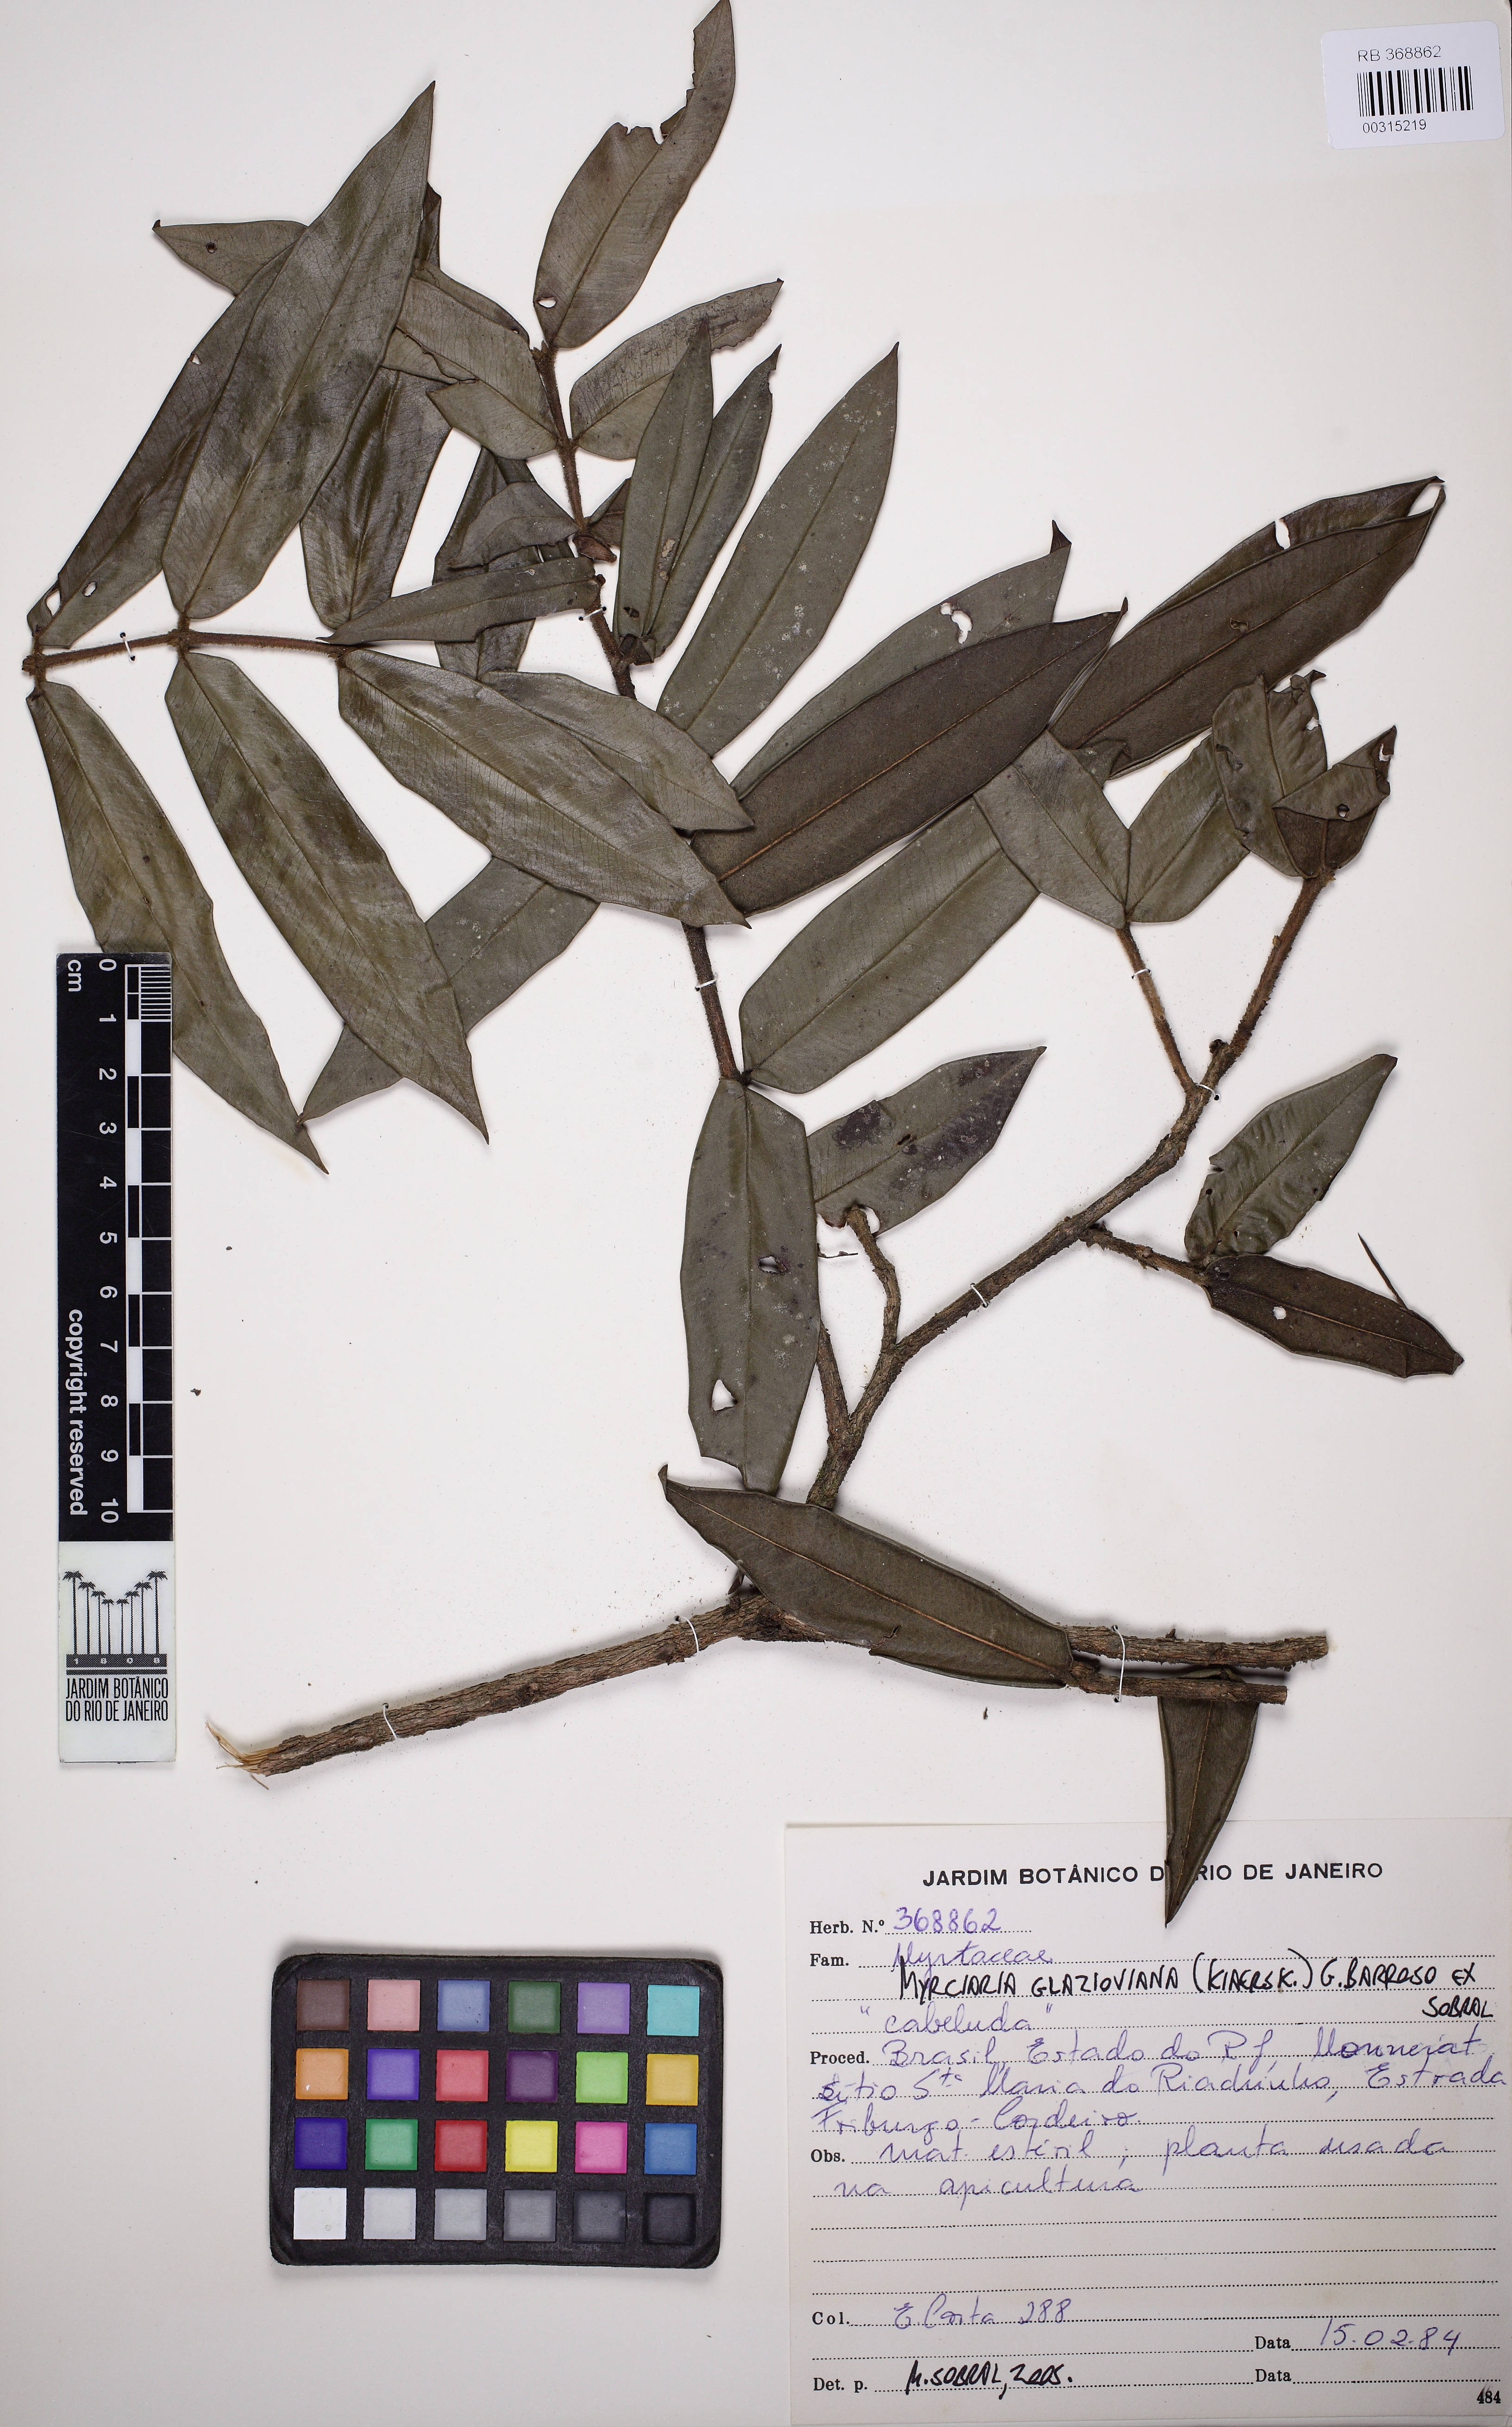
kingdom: Plantae
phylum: Tracheophyta
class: Magnoliopsida
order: Myrtales
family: Myrtaceae
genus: Myrciaria
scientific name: Myrciaria glazioviana
